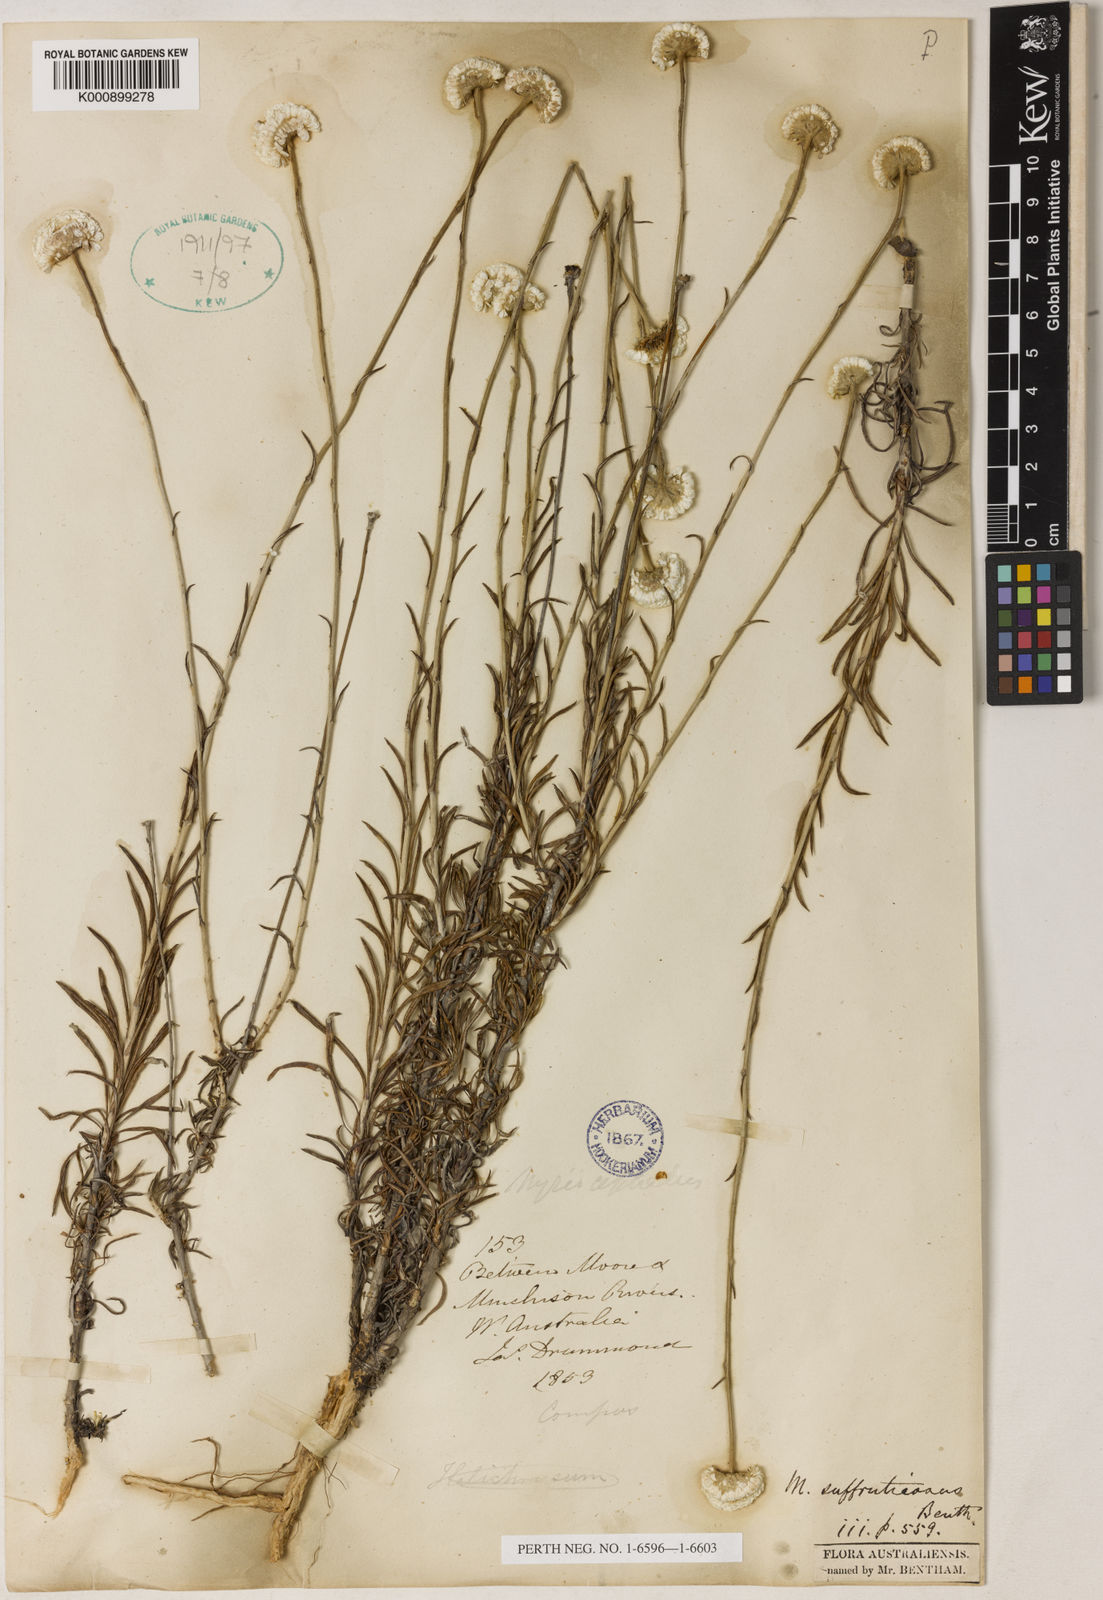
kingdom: Plantae
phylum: Tracheophyta
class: Magnoliopsida
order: Asterales
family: Asteraceae
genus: Rhetinocarpha
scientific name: Rhetinocarpha suffruticosa
